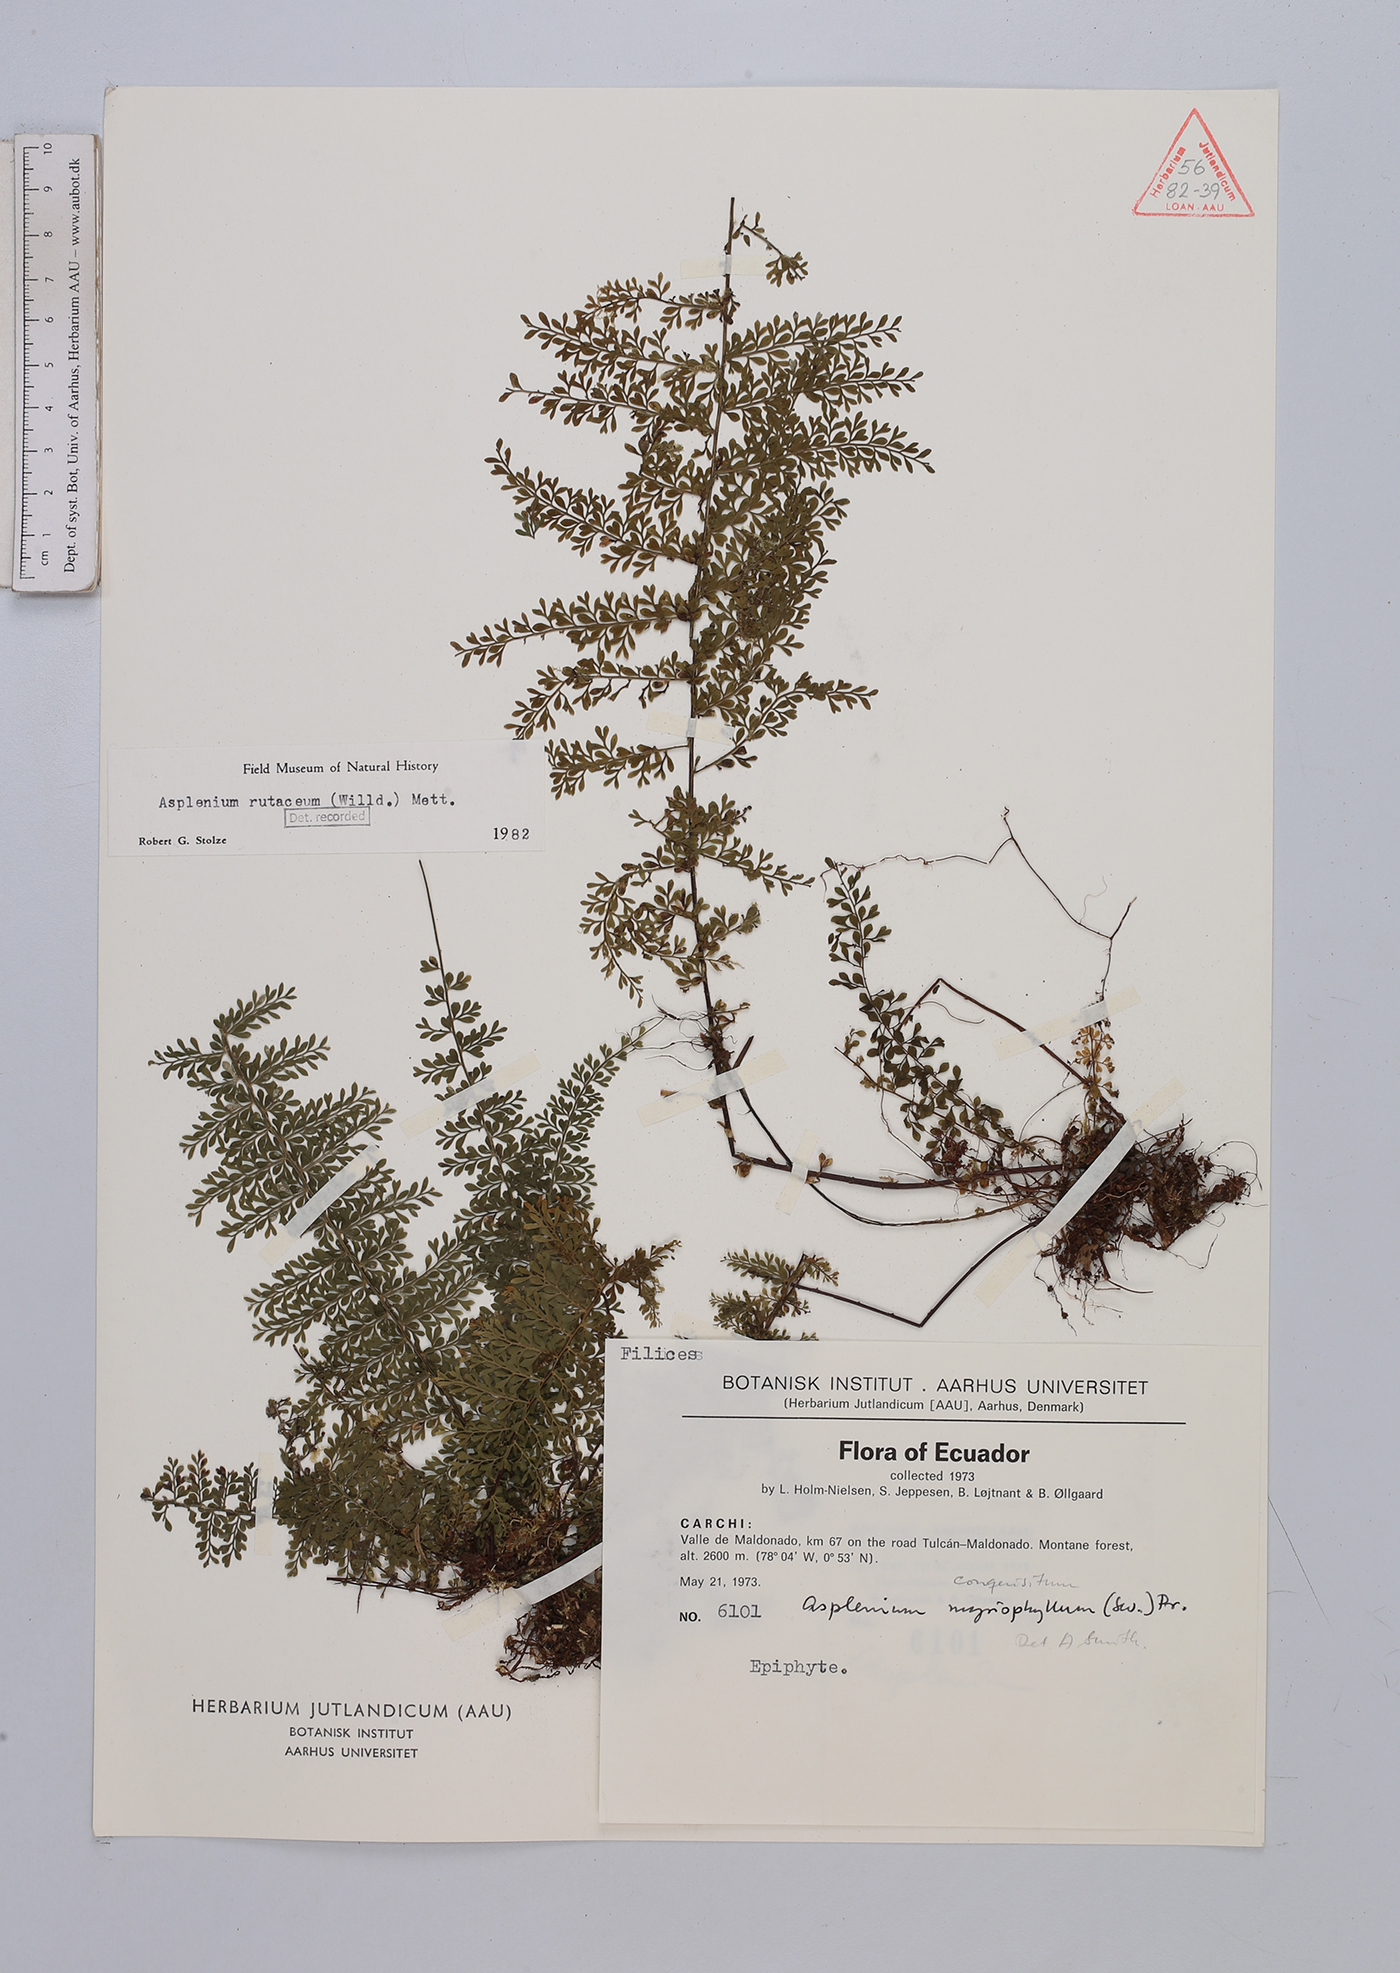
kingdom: Plantae
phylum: Tracheophyta
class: Polypodiopsida
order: Polypodiales
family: Aspleniaceae
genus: Asplenium
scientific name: Asplenium rutaceum
